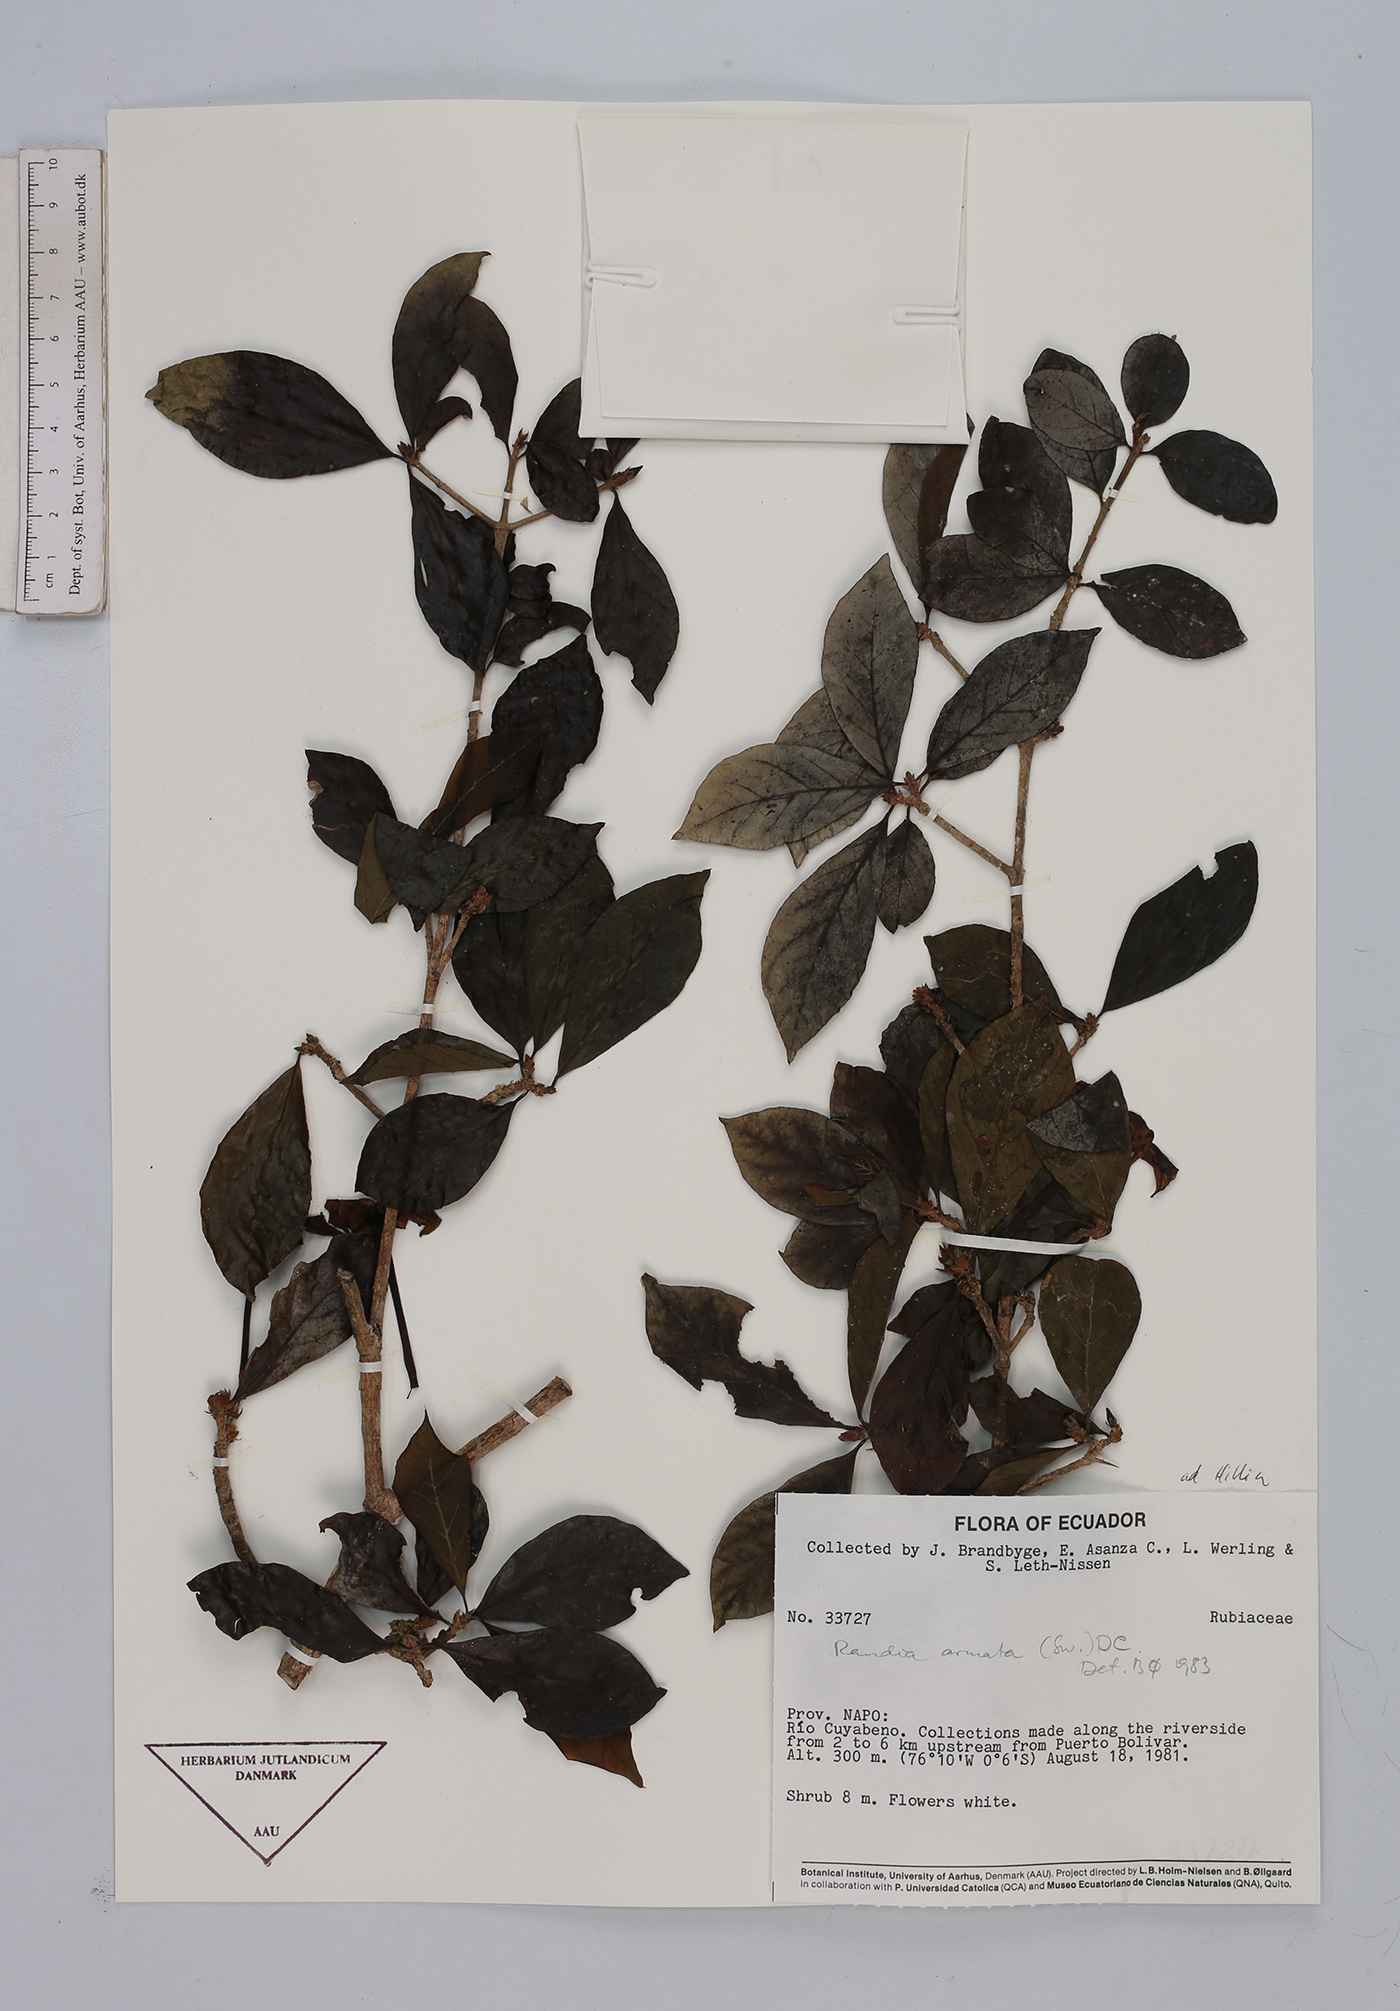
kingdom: Plantae
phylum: Tracheophyta
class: Magnoliopsida
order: Gentianales
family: Rubiaceae
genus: Randia
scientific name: Randia armata
